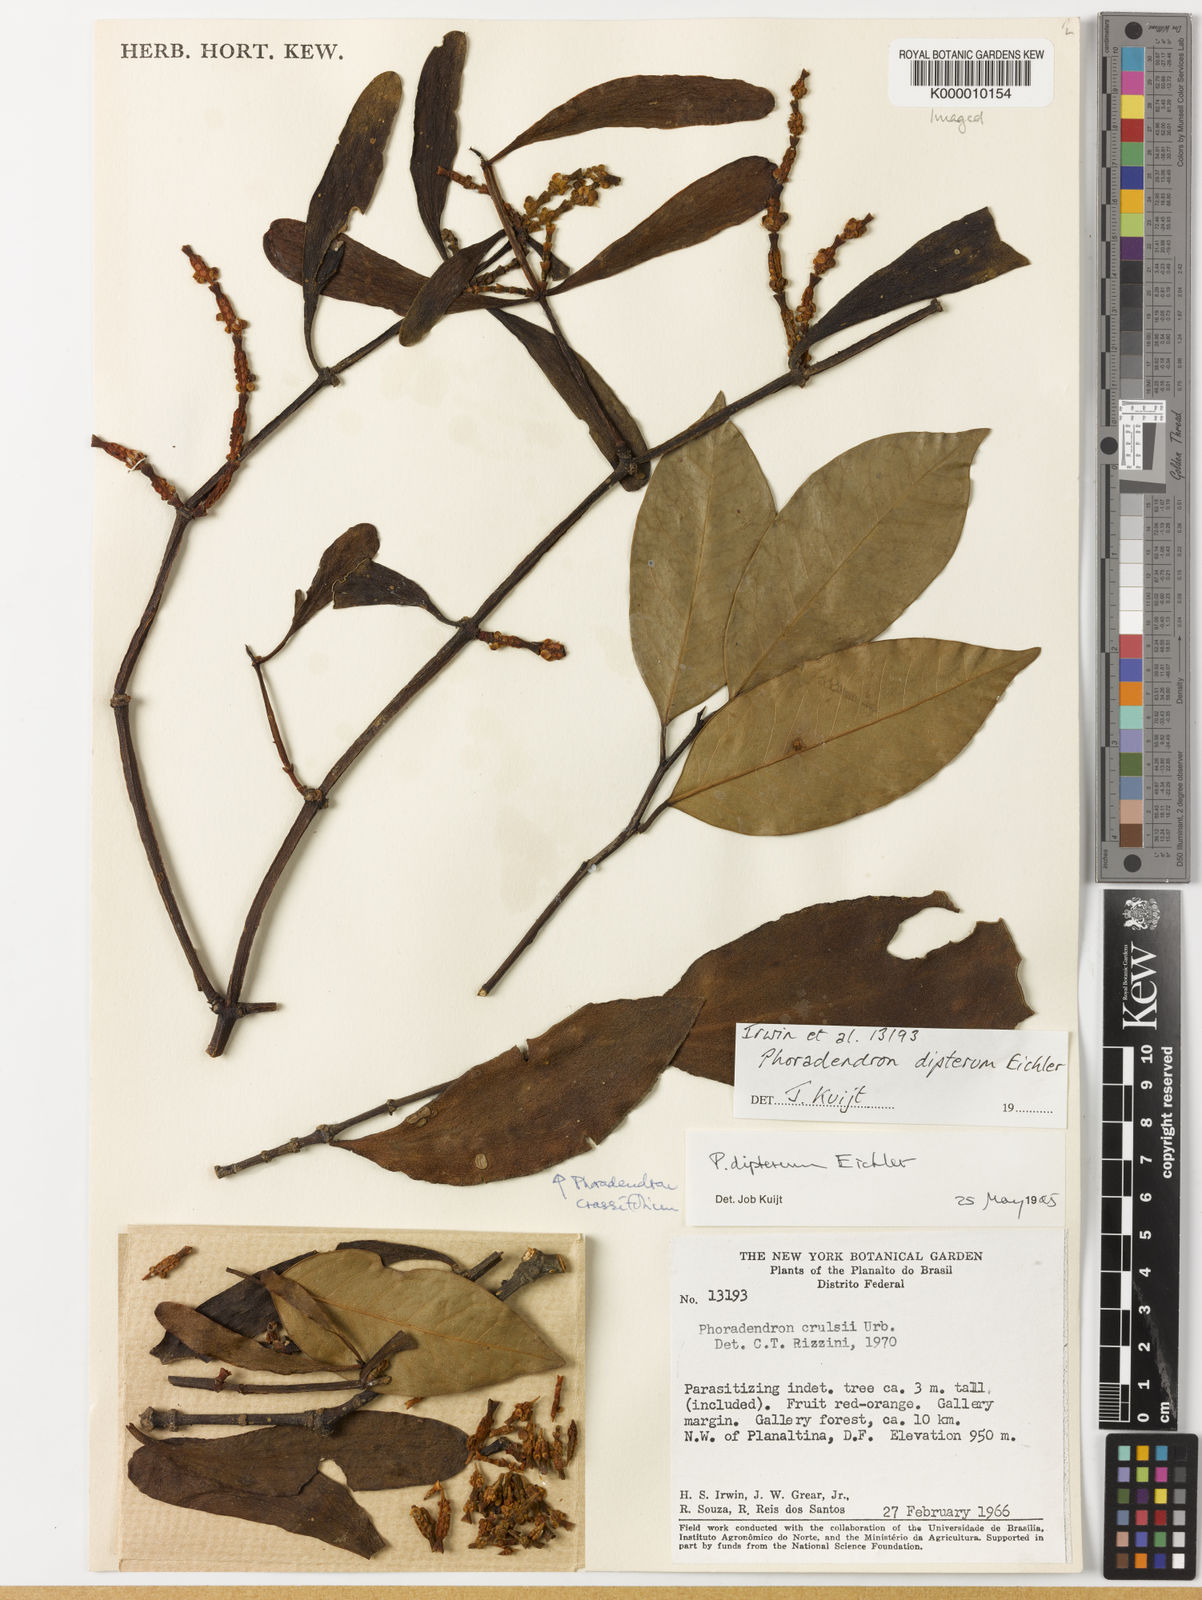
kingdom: Plantae
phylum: Tracheophyta
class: Magnoliopsida
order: Santalales
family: Viscaceae
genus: Phoradendron
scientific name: Phoradendron dipterum
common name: Fourpart mistletoe
